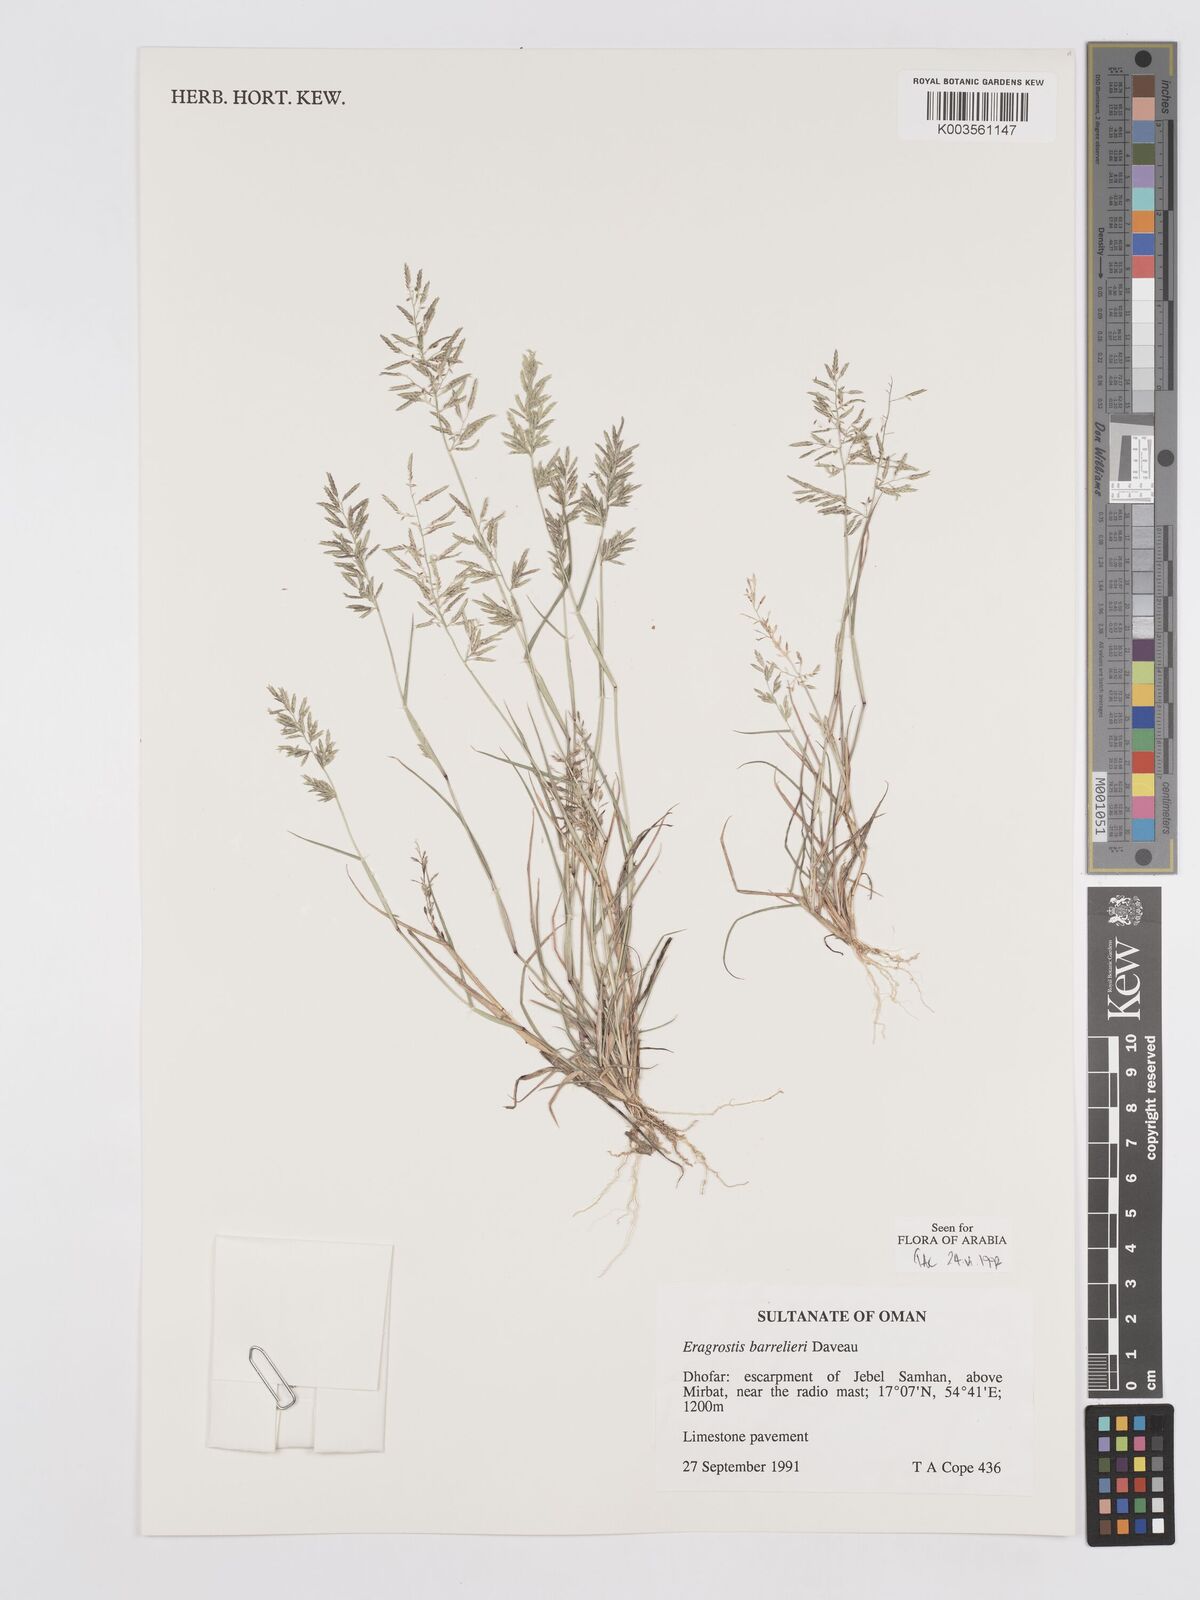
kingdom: Plantae
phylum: Tracheophyta
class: Liliopsida
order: Poales
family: Poaceae
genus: Eragrostis
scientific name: Eragrostis barrelieri
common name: Mediterranean lovegrass
